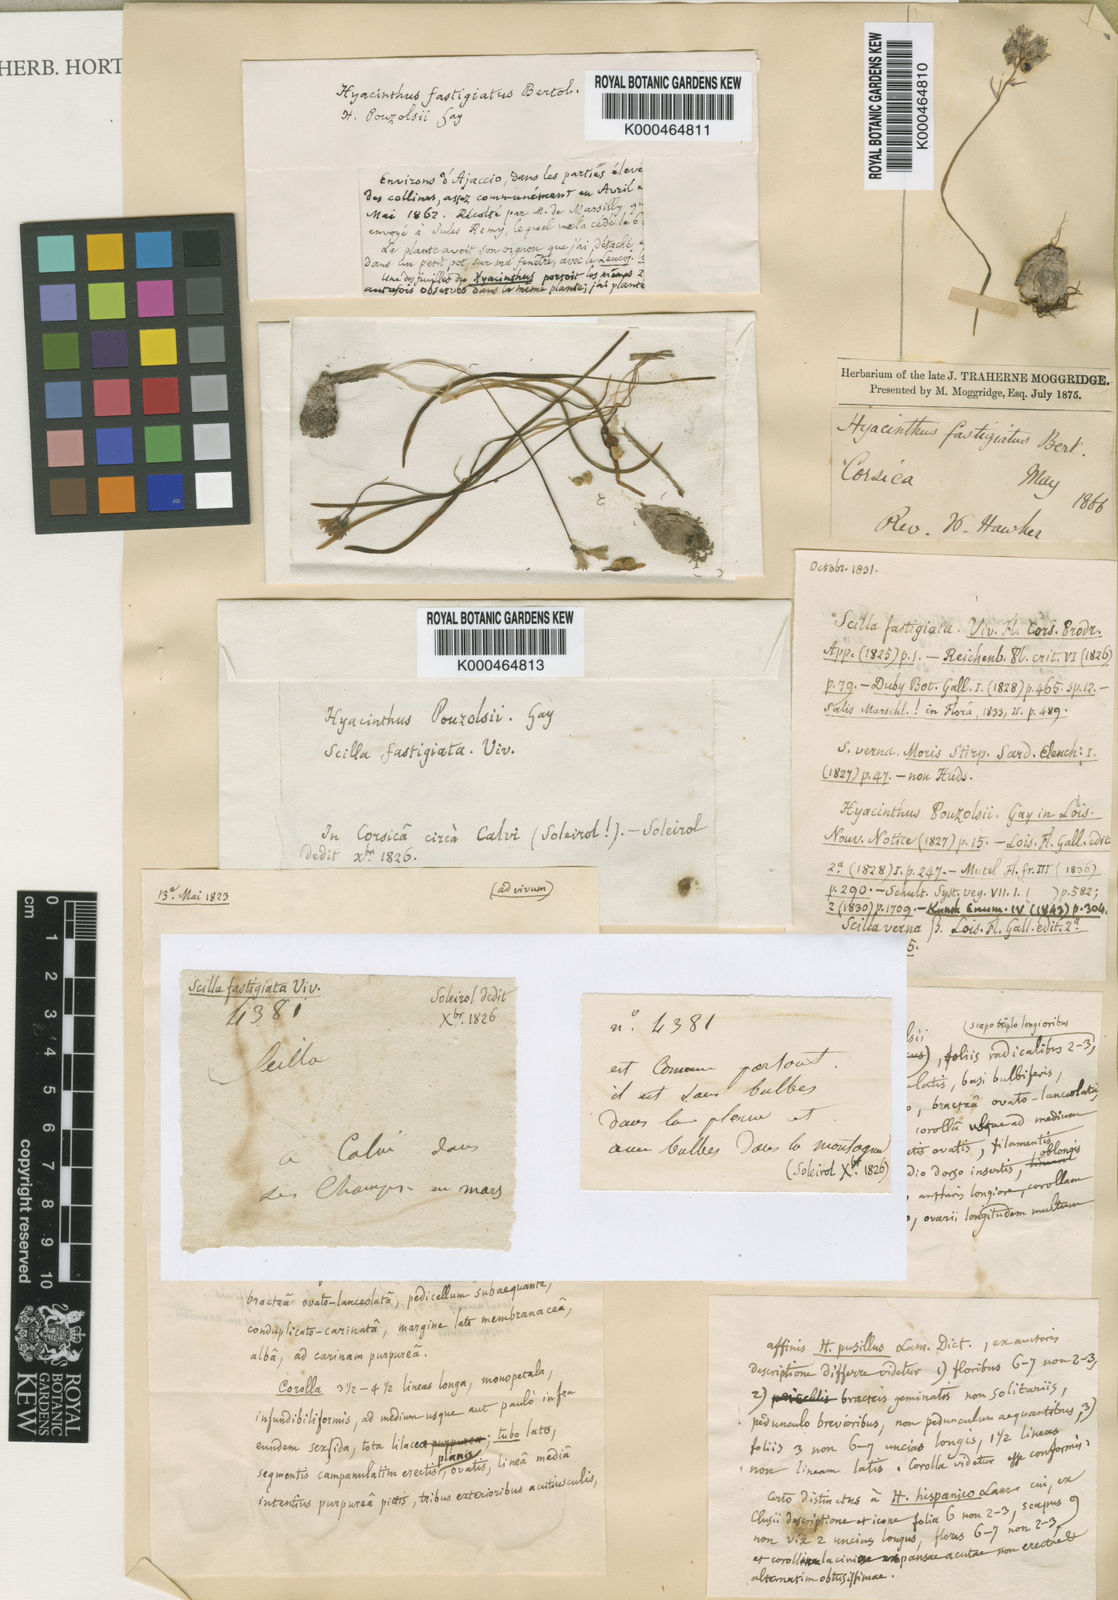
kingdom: Plantae
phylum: Tracheophyta
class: Liliopsida
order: Asparagales
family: Asparagaceae
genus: Brimeura
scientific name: Brimeura fastigiata
